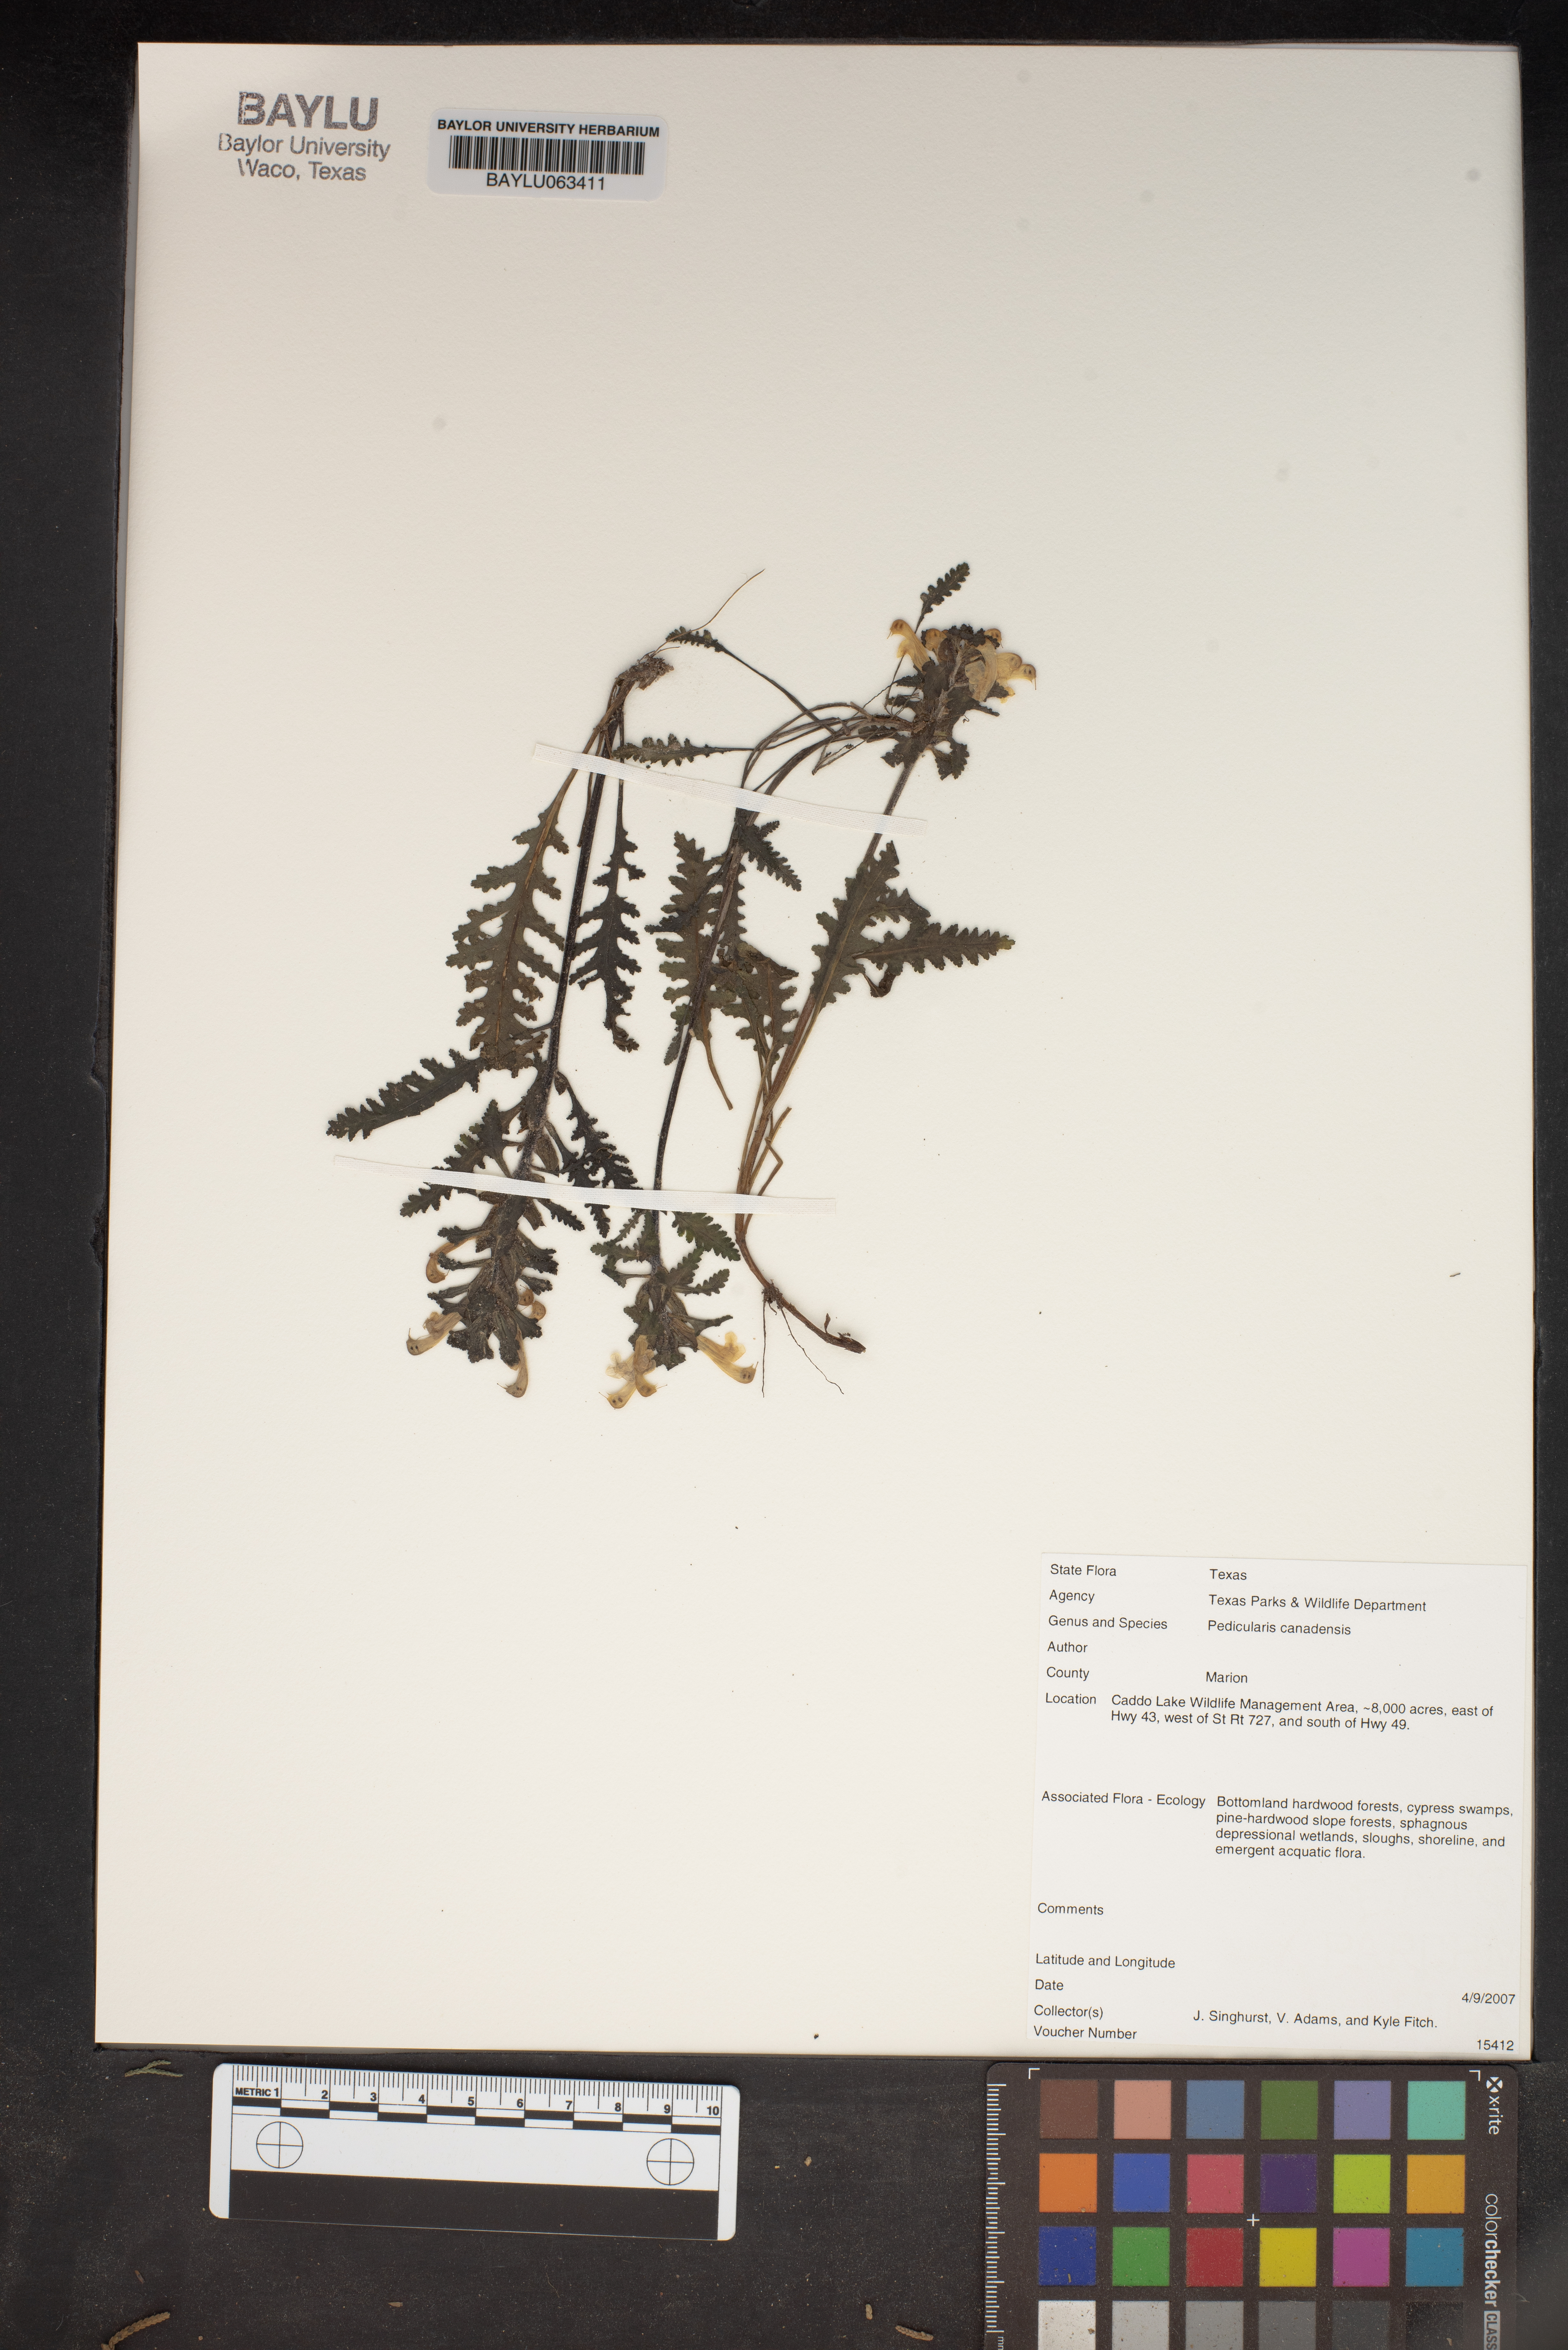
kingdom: Plantae
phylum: Tracheophyta
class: Magnoliopsida
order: Lamiales
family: Orobanchaceae
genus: Pedicularis
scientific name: Pedicularis canadensis
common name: Early lousewort
